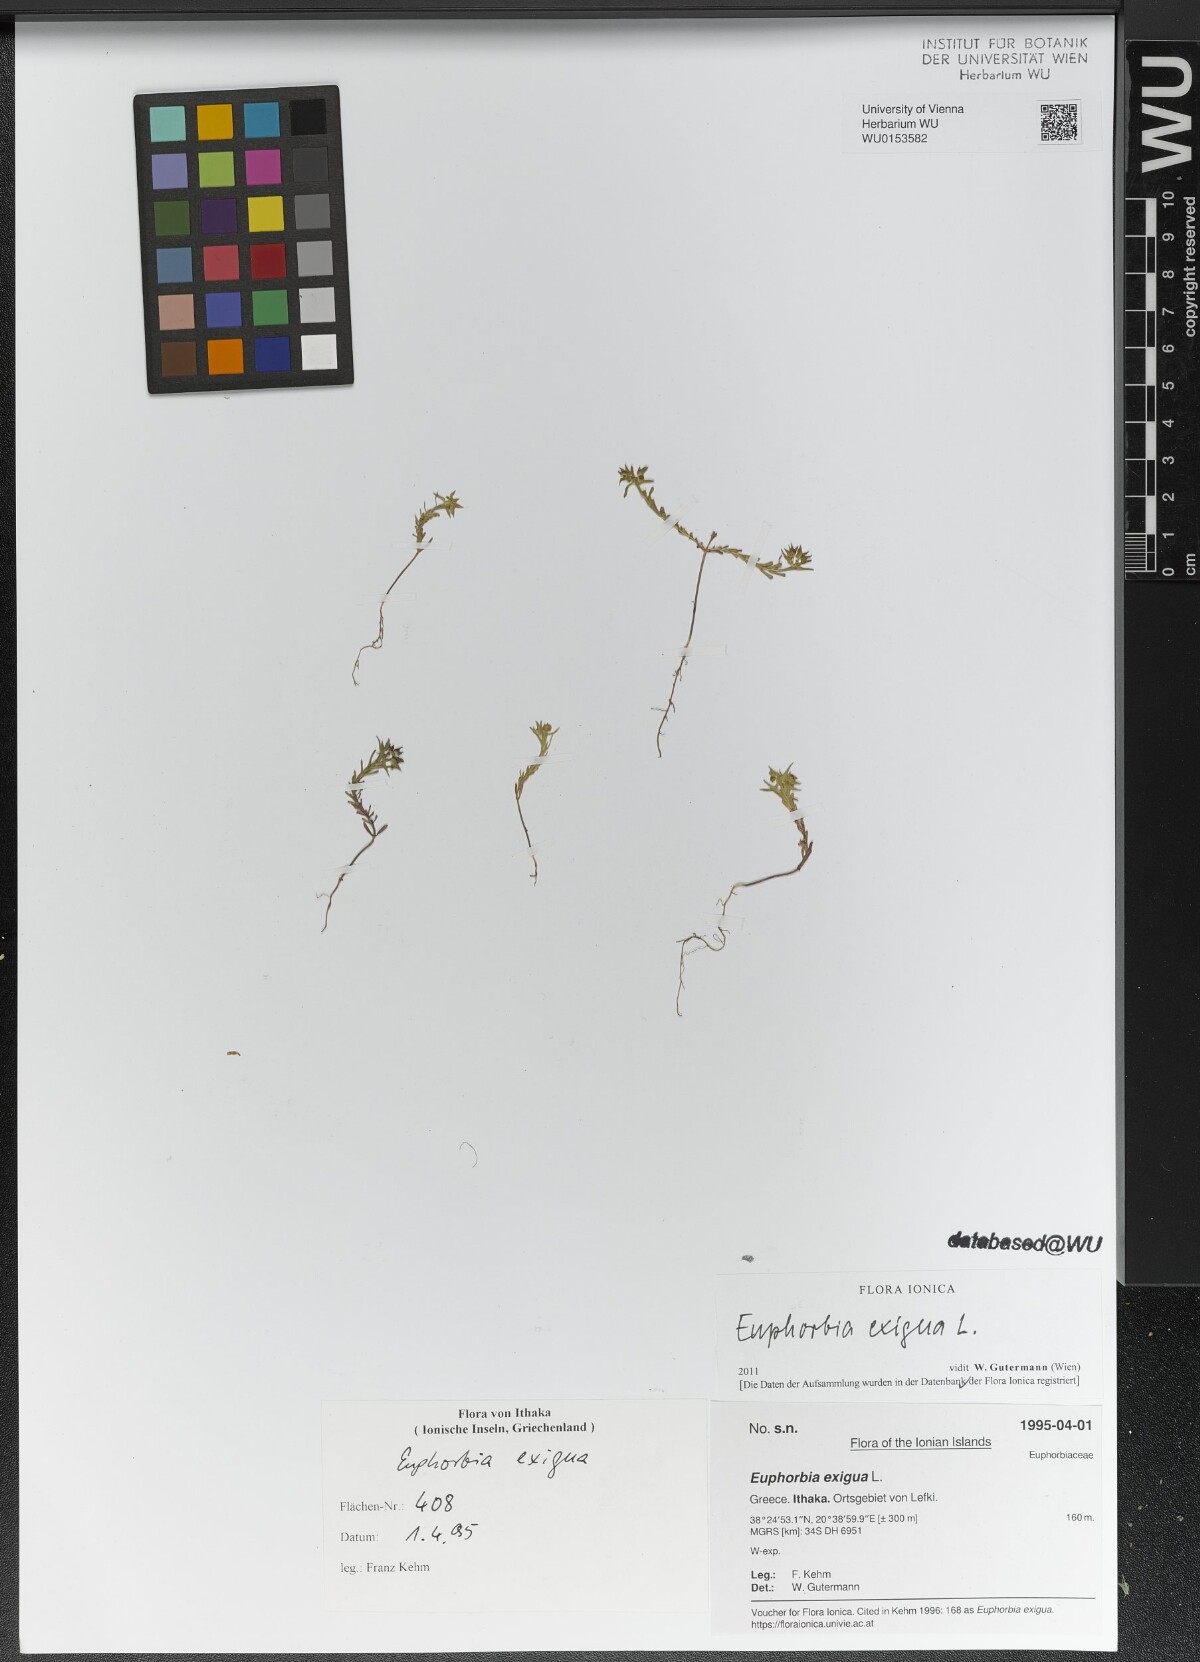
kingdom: Plantae
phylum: Tracheophyta
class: Magnoliopsida
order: Malpighiales
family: Euphorbiaceae
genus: Euphorbia
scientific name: Euphorbia exigua
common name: Dwarf spurge
